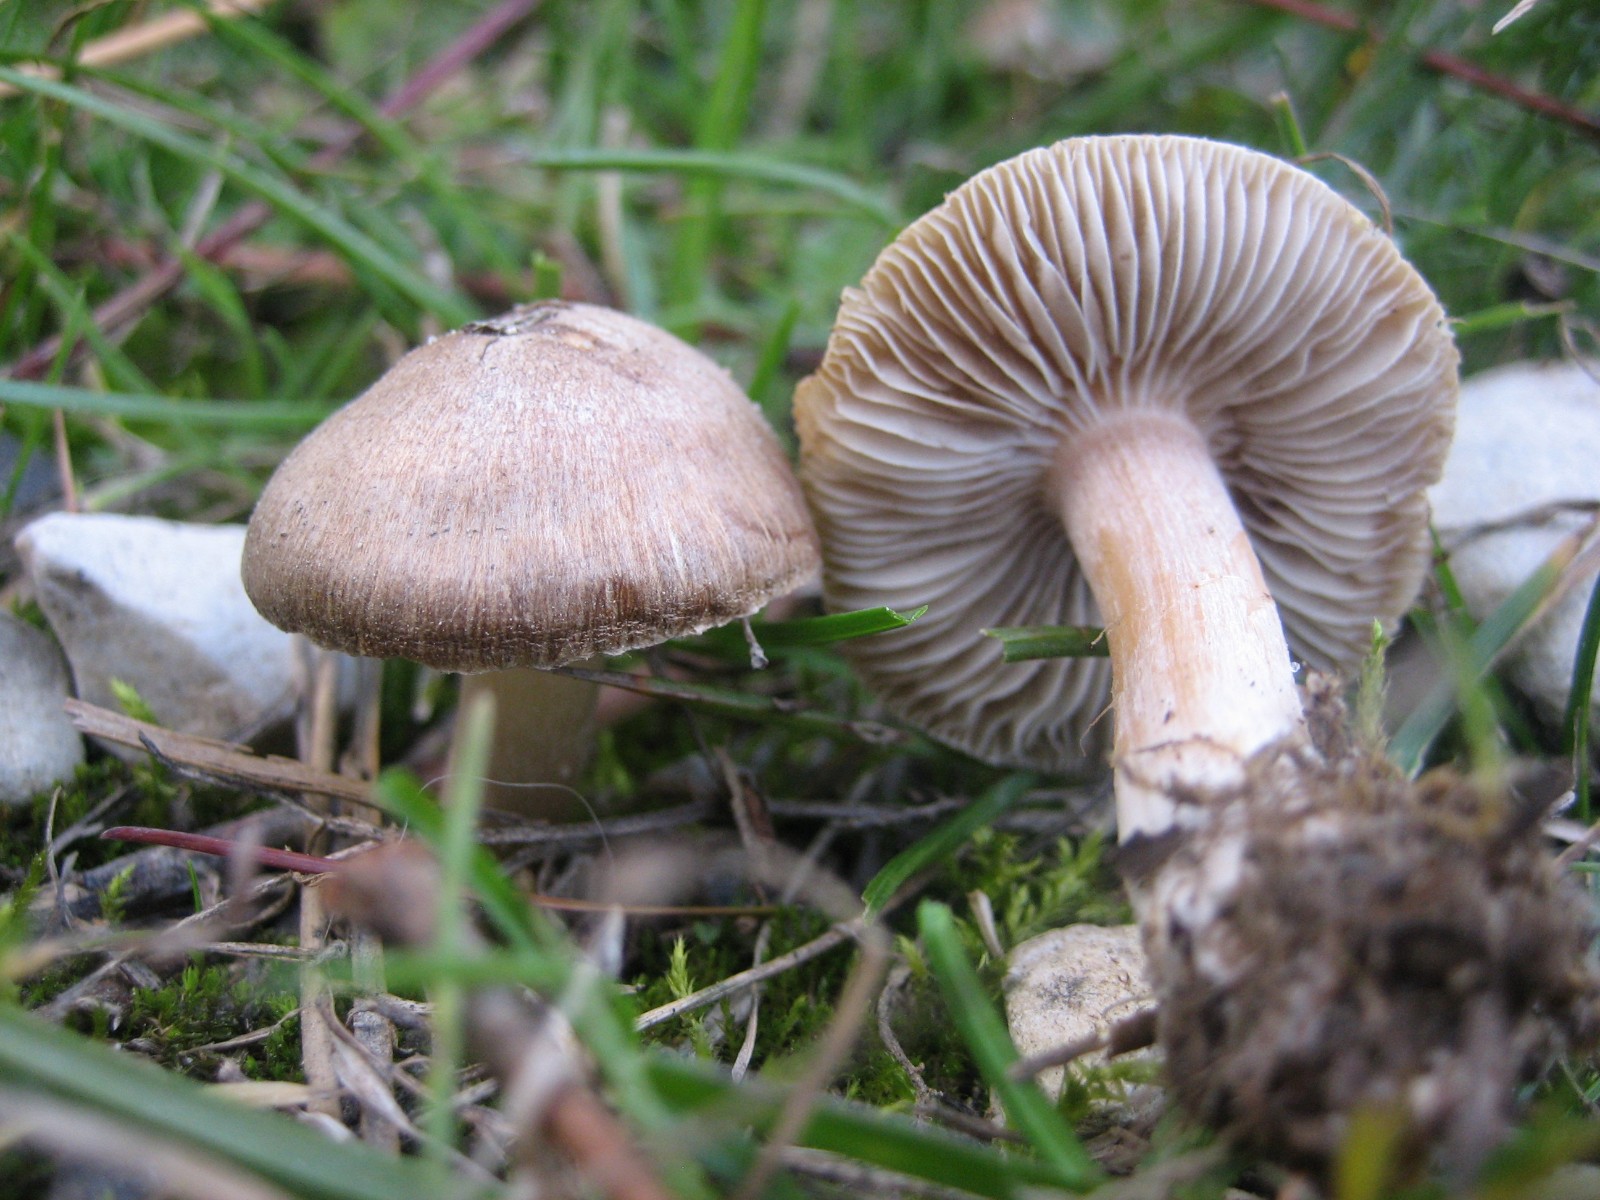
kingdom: Fungi
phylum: Basidiomycota
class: Agaricomycetes
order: Agaricales
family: Inocybaceae
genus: Inocybe
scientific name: Inocybe
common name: trævlhat
